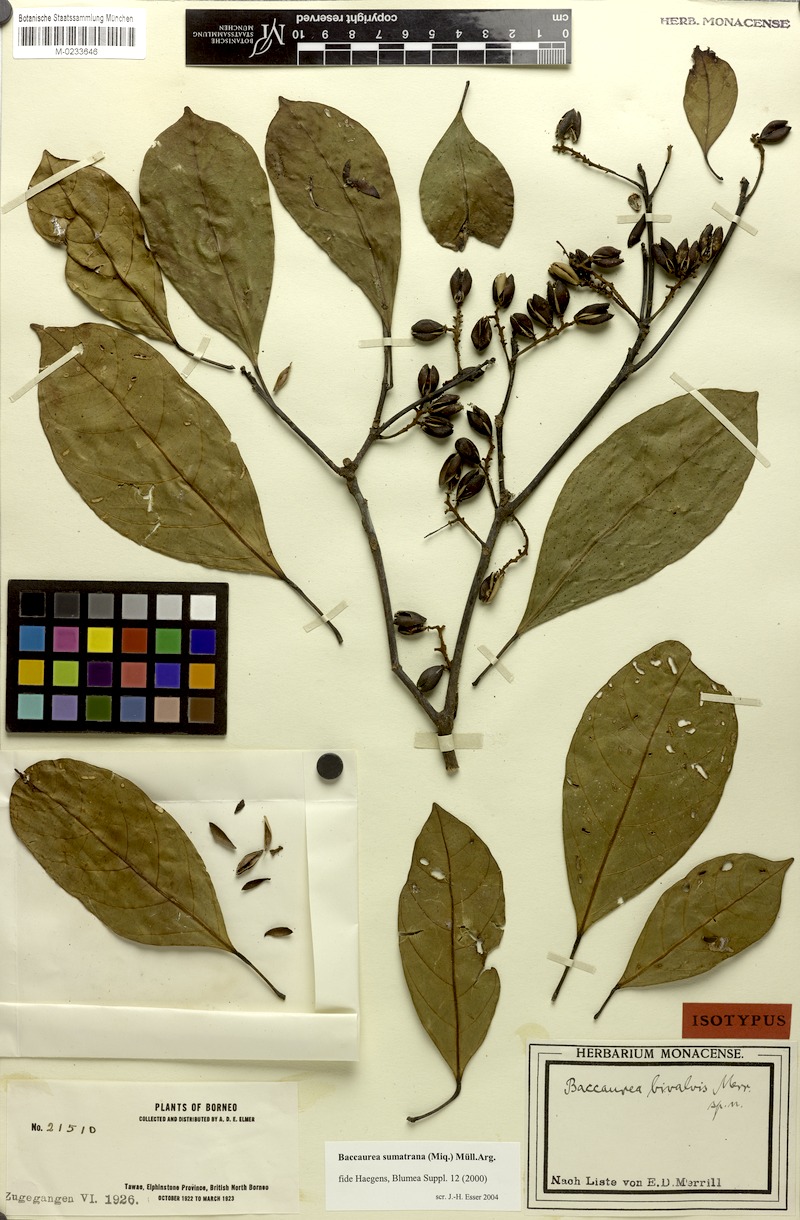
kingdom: Plantae
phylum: Tracheophyta
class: Magnoliopsida
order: Malpighiales
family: Phyllanthaceae
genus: Baccaurea
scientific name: Baccaurea sumatrana
